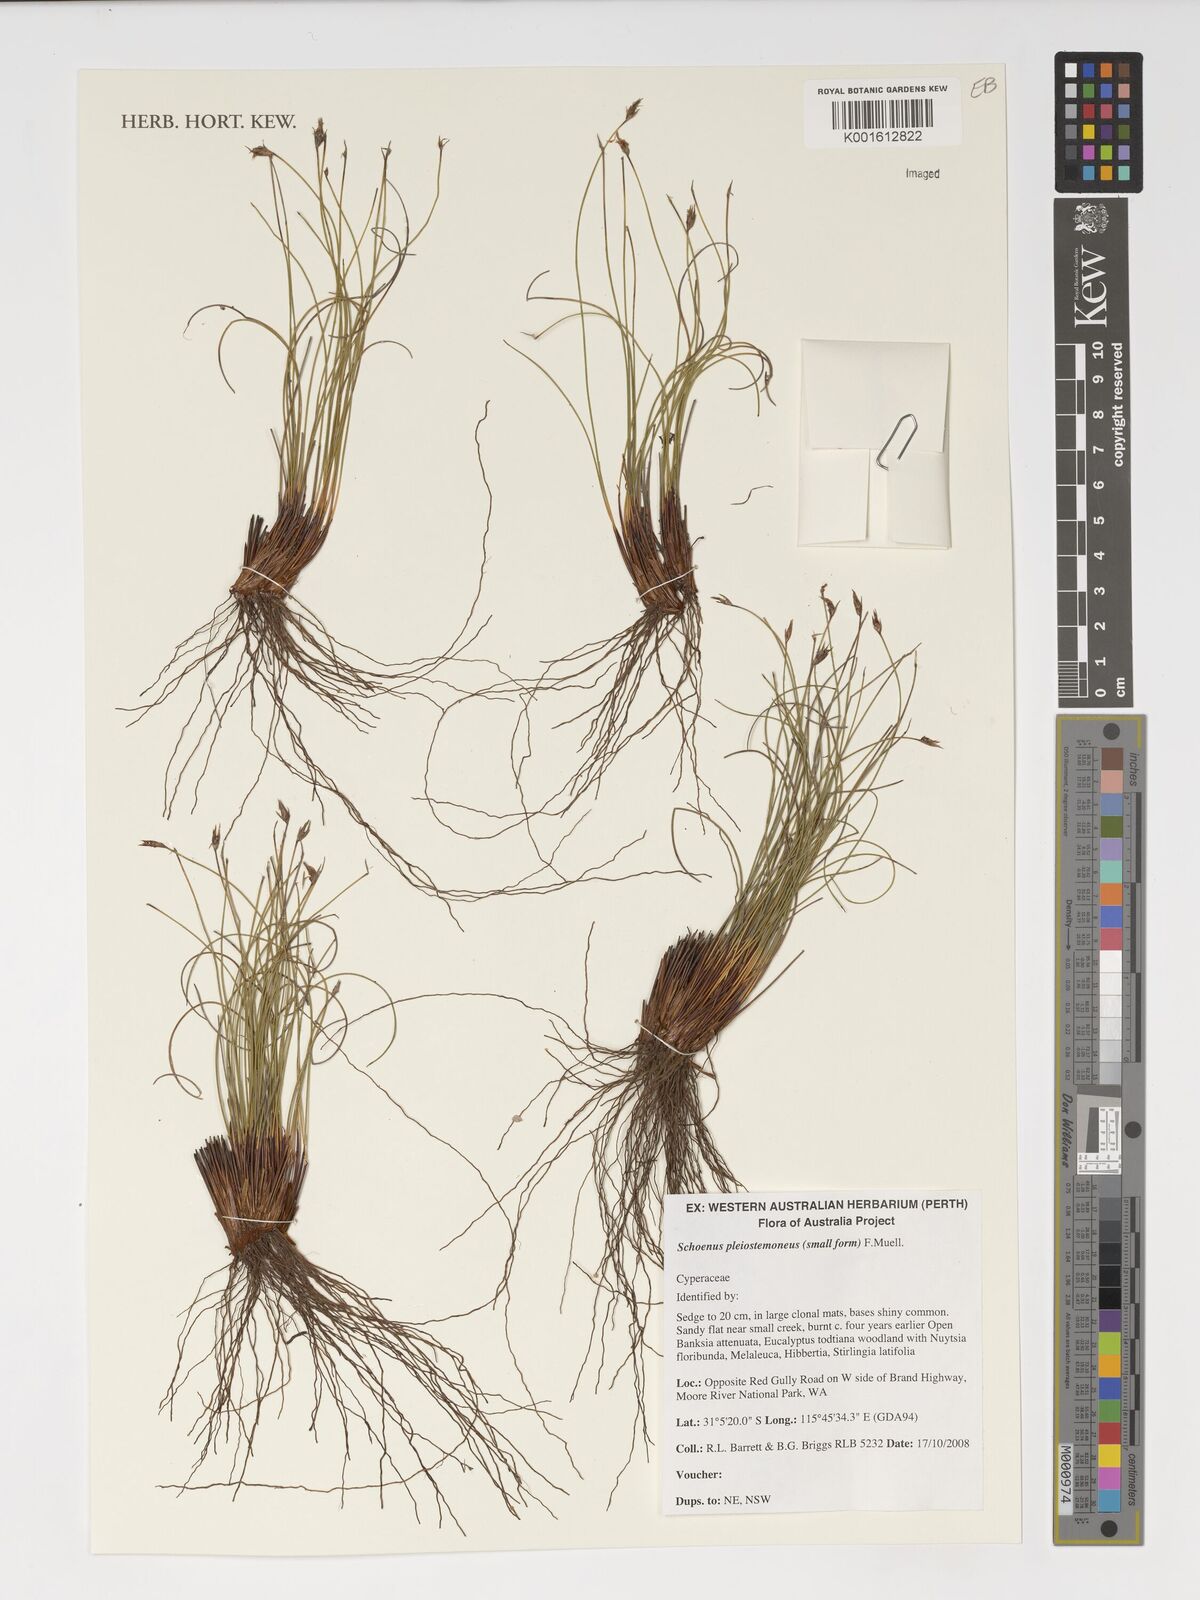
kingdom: Plantae
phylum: Tracheophyta
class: Liliopsida
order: Poales
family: Cyperaceae
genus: Schoenus
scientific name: Schoenus pleiostemoneus
